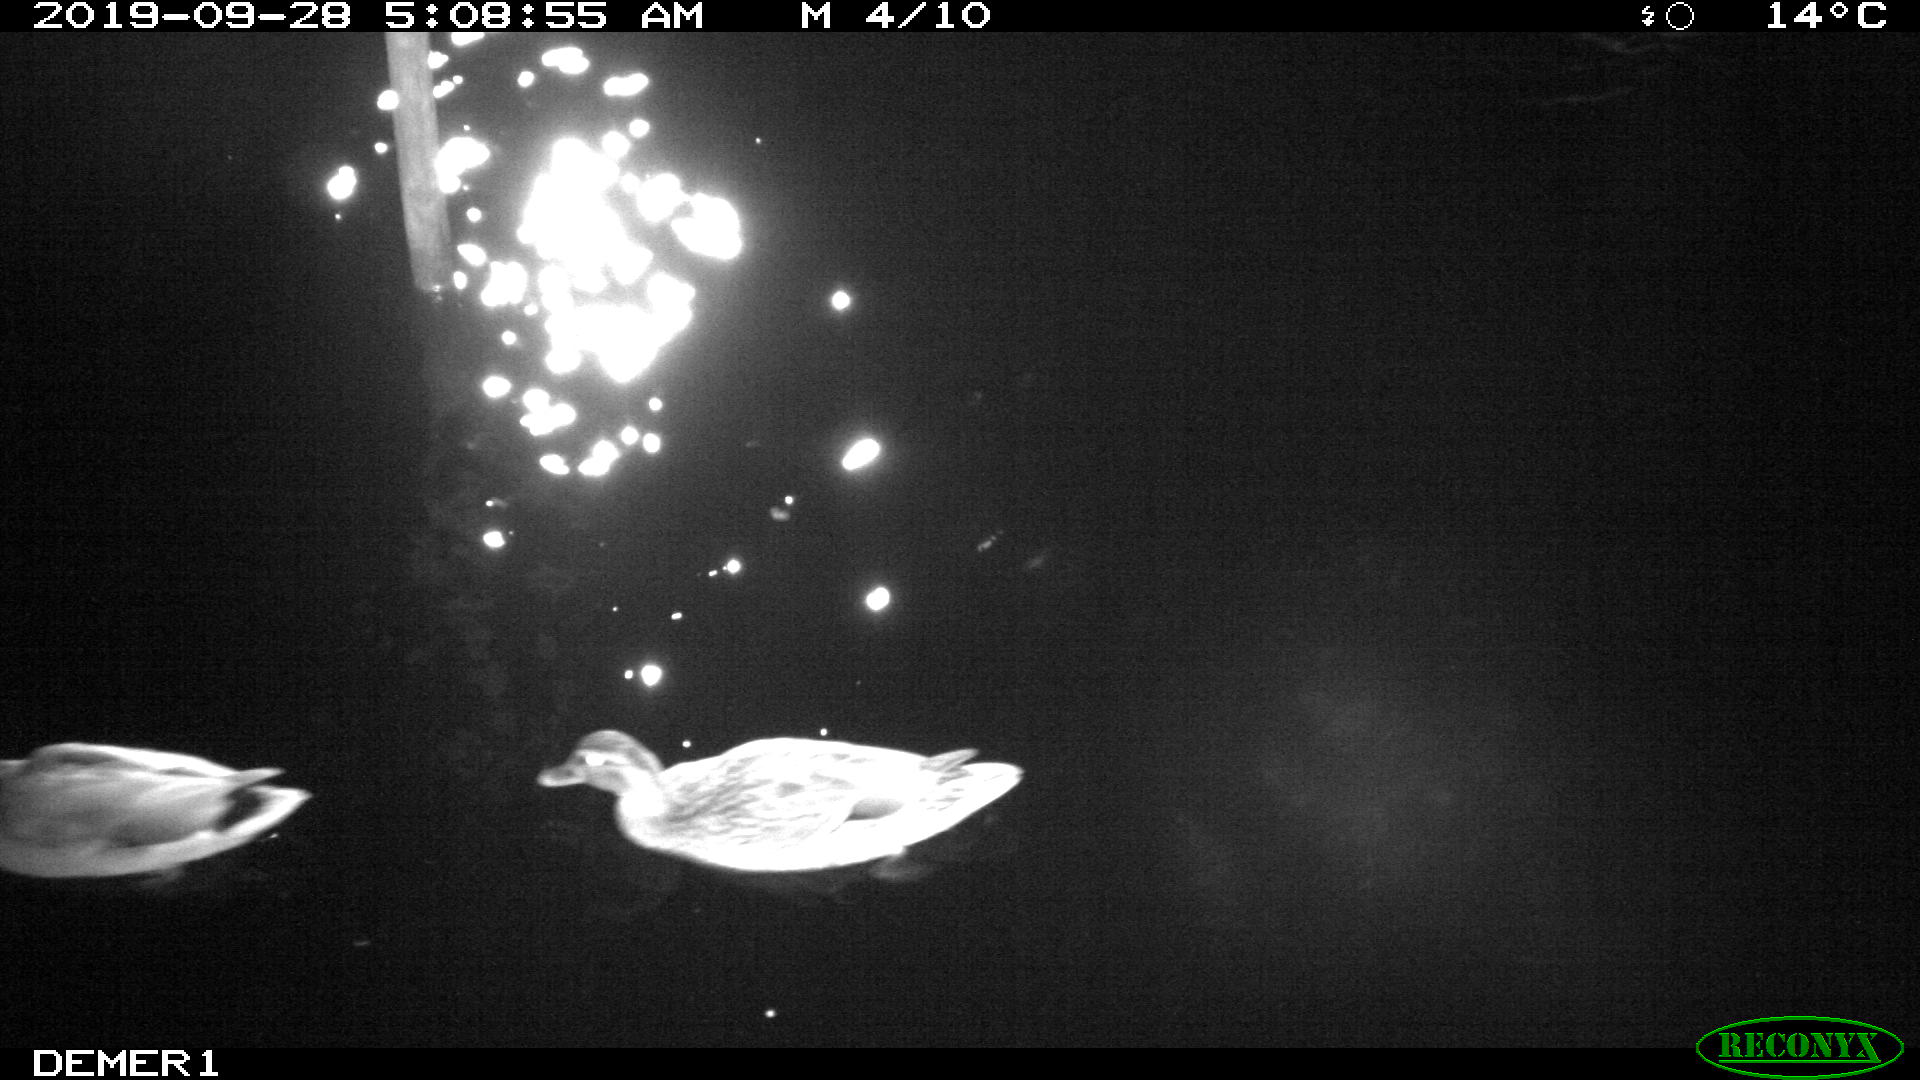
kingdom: Animalia
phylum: Chordata
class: Aves
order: Anseriformes
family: Anatidae
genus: Anas
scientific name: Anas platyrhynchos
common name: Mallard
